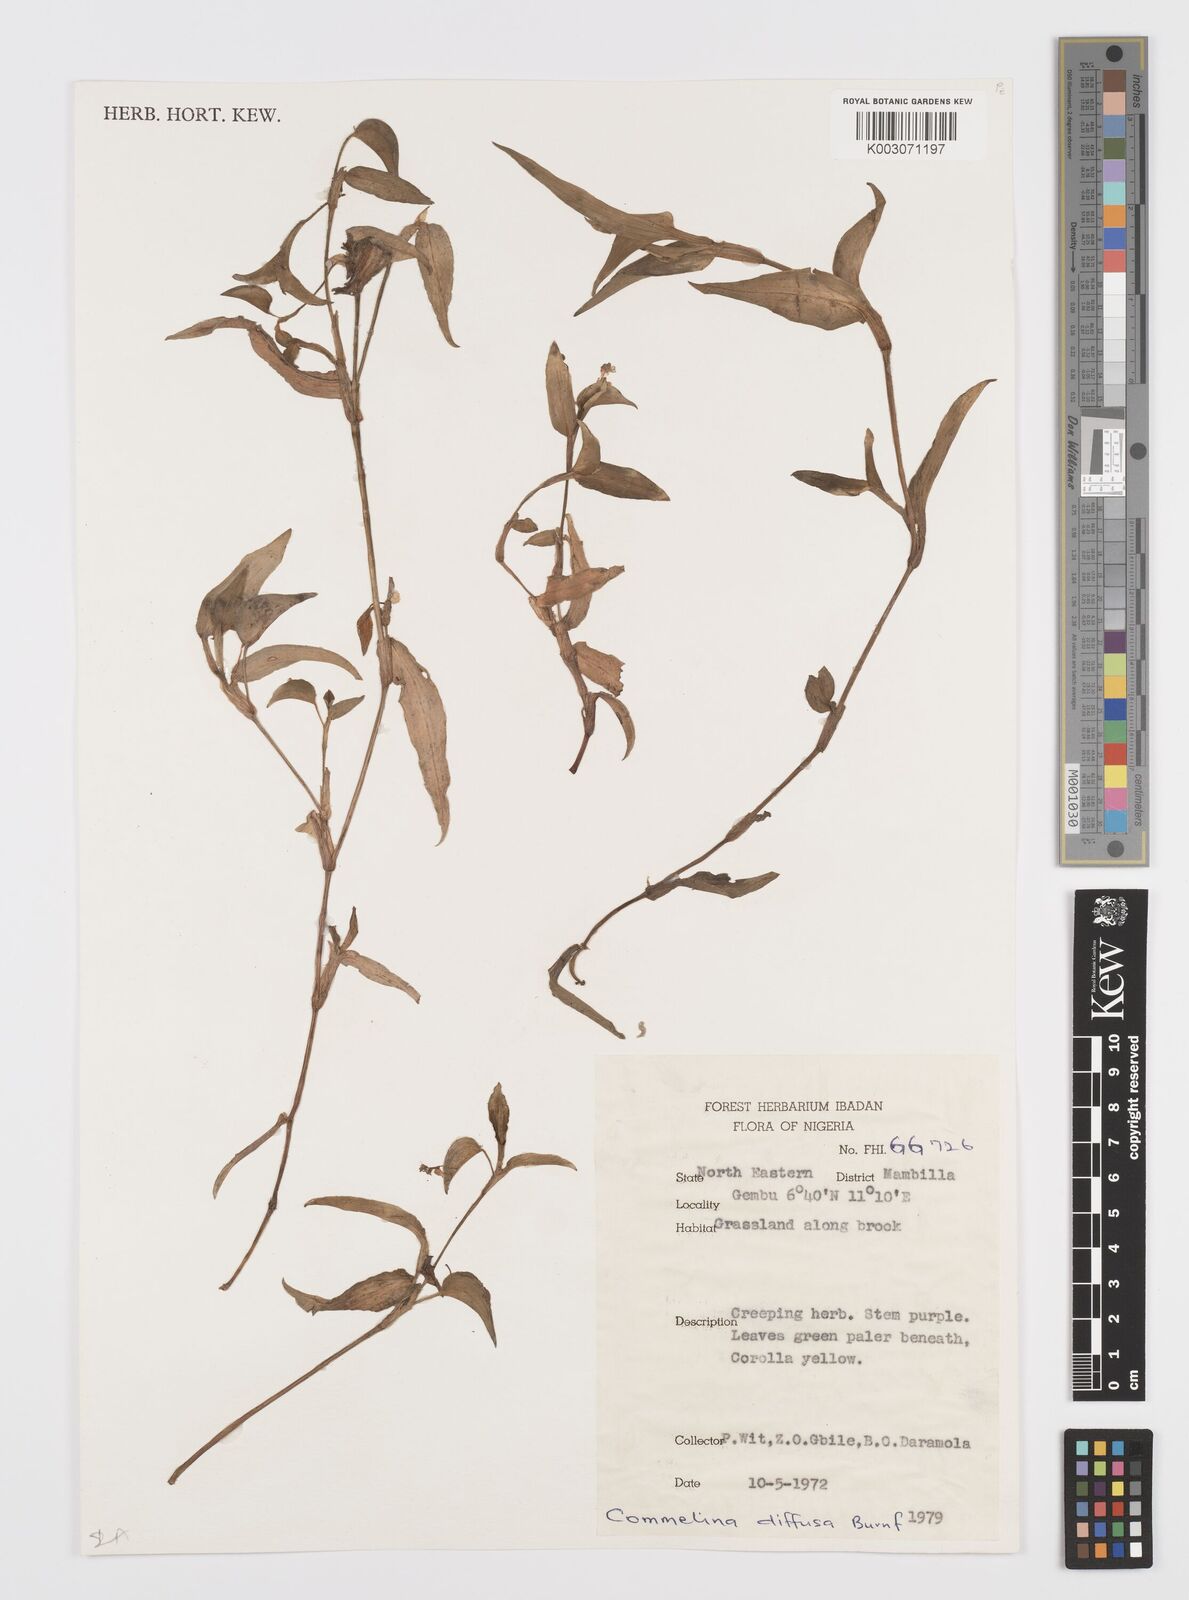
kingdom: Plantae
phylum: Tracheophyta
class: Liliopsida
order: Commelinales
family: Commelinaceae
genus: Commelina
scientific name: Commelina diffusa
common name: Climbing dayflower
